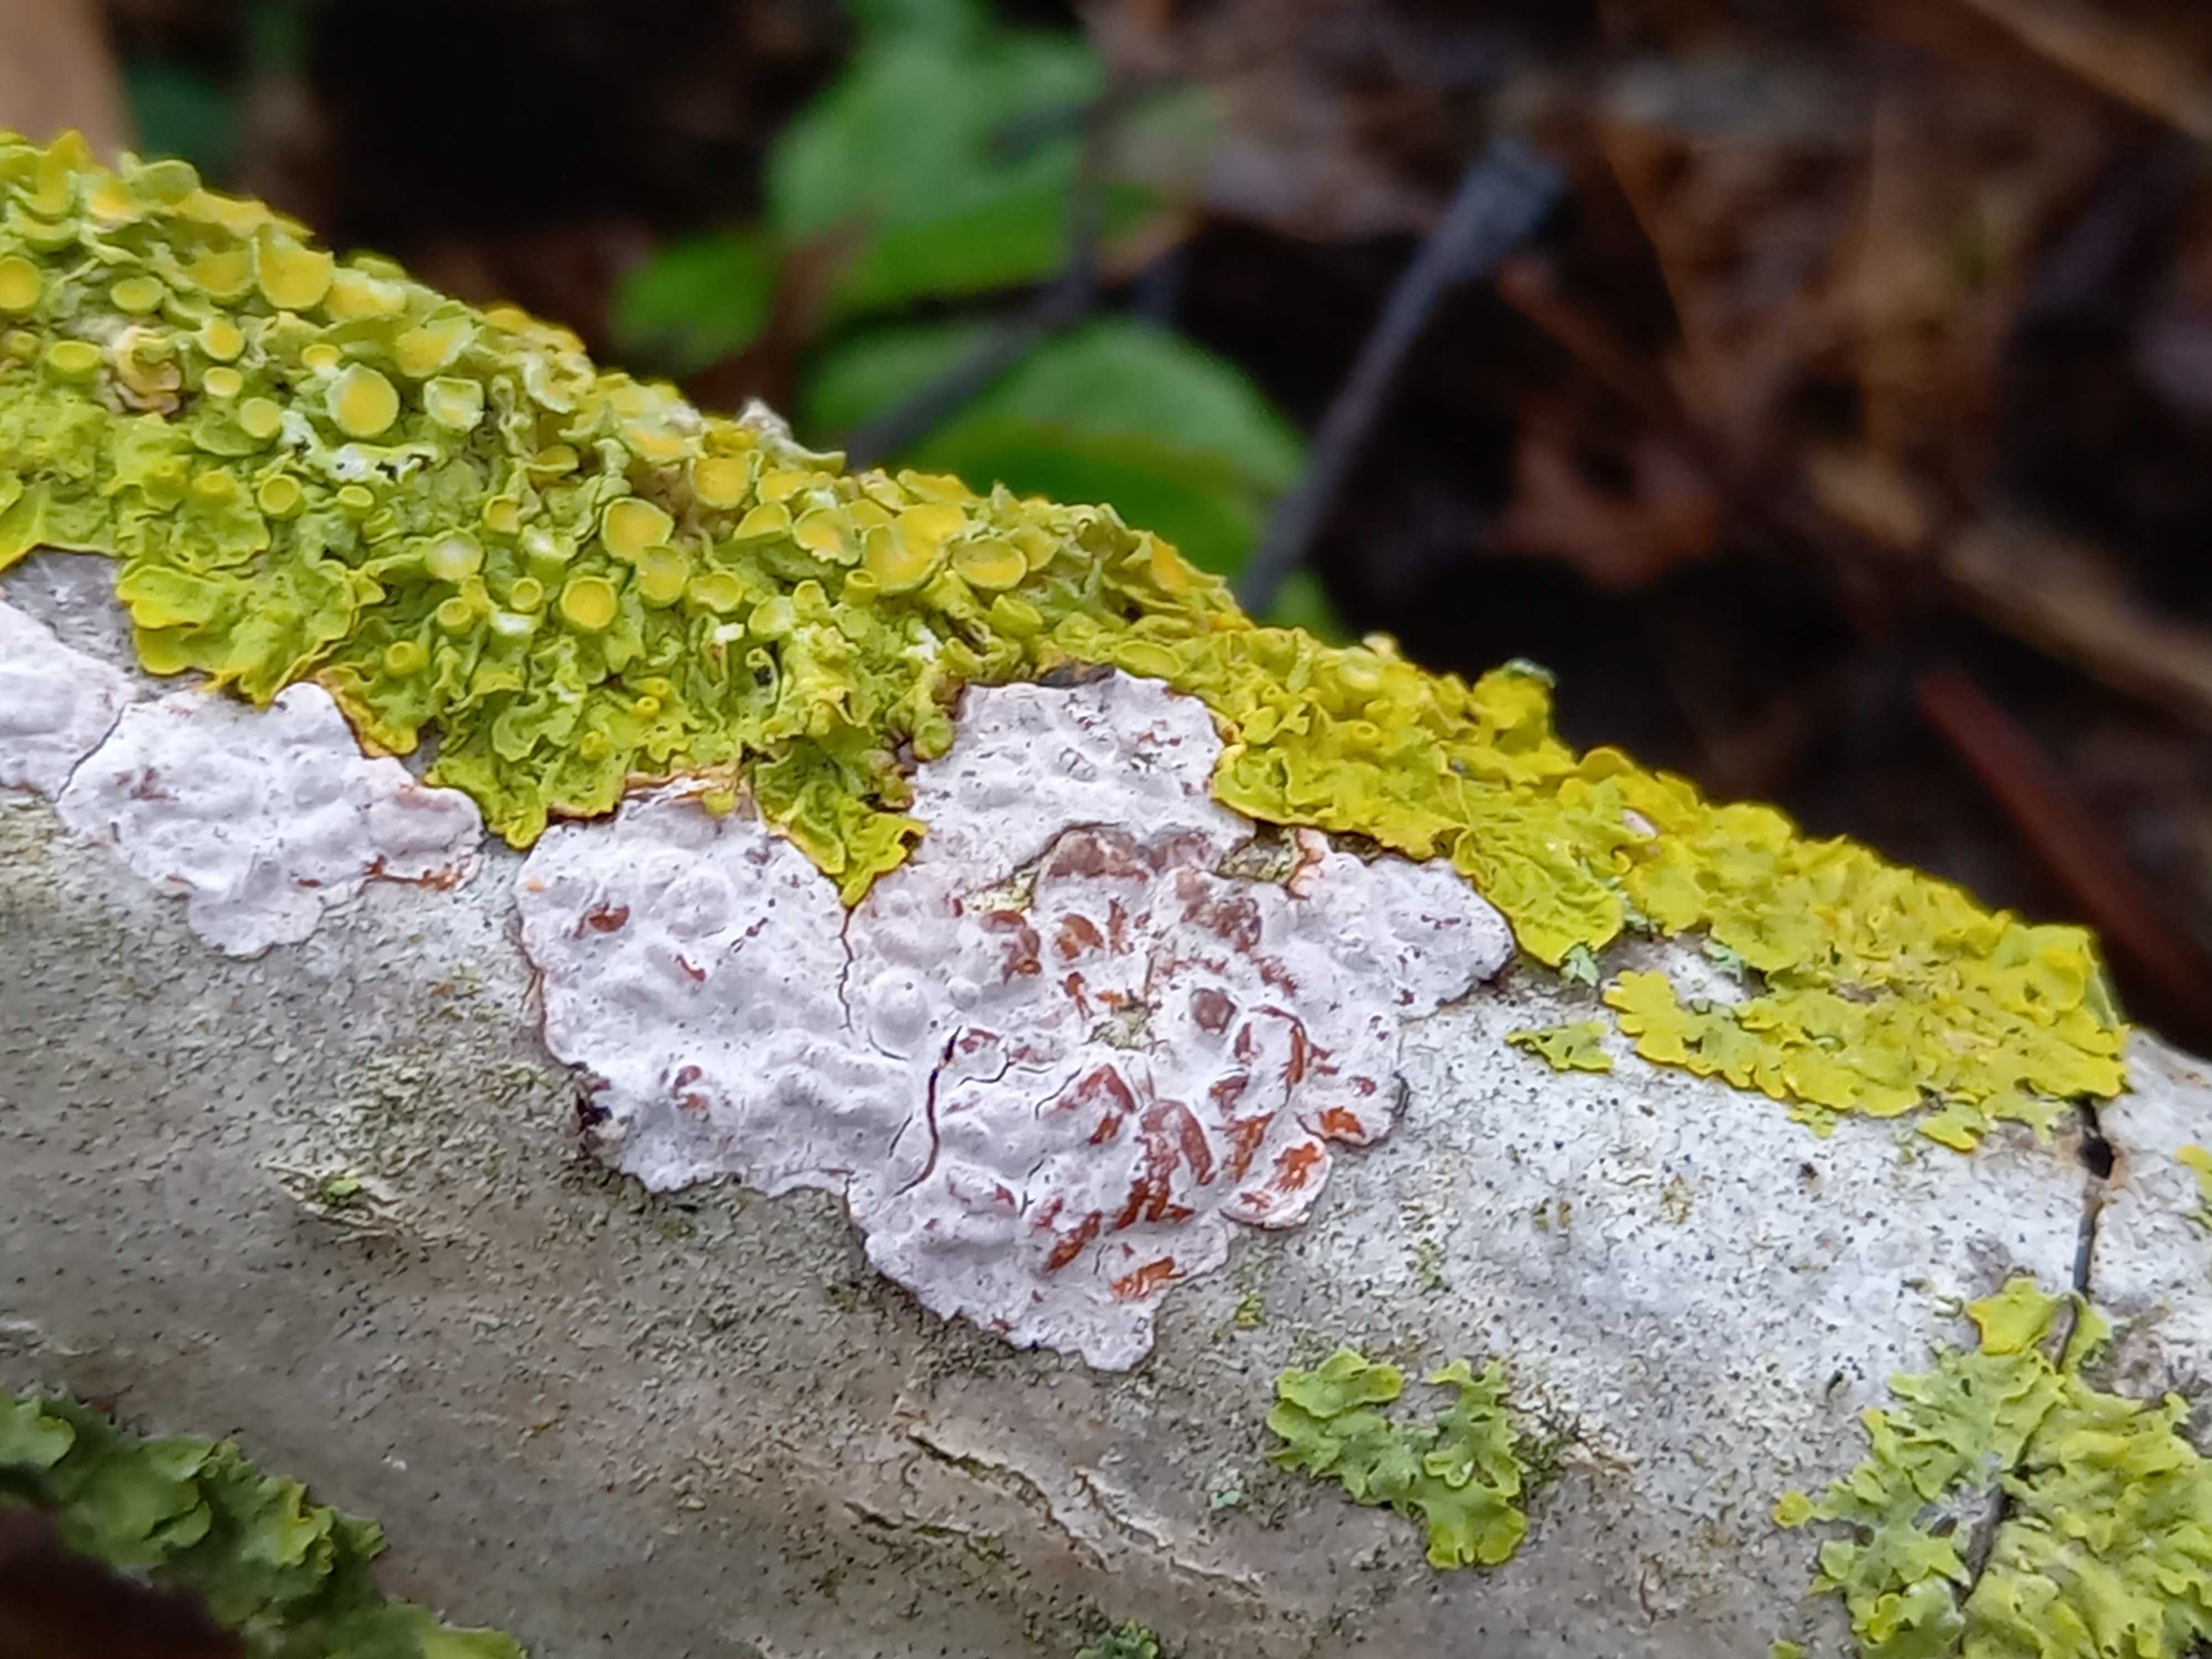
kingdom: Fungi
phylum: Basidiomycota
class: Agaricomycetes
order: Russulales
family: Peniophoraceae
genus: Peniophora
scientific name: Peniophora polygonia
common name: polygon-voksskind
